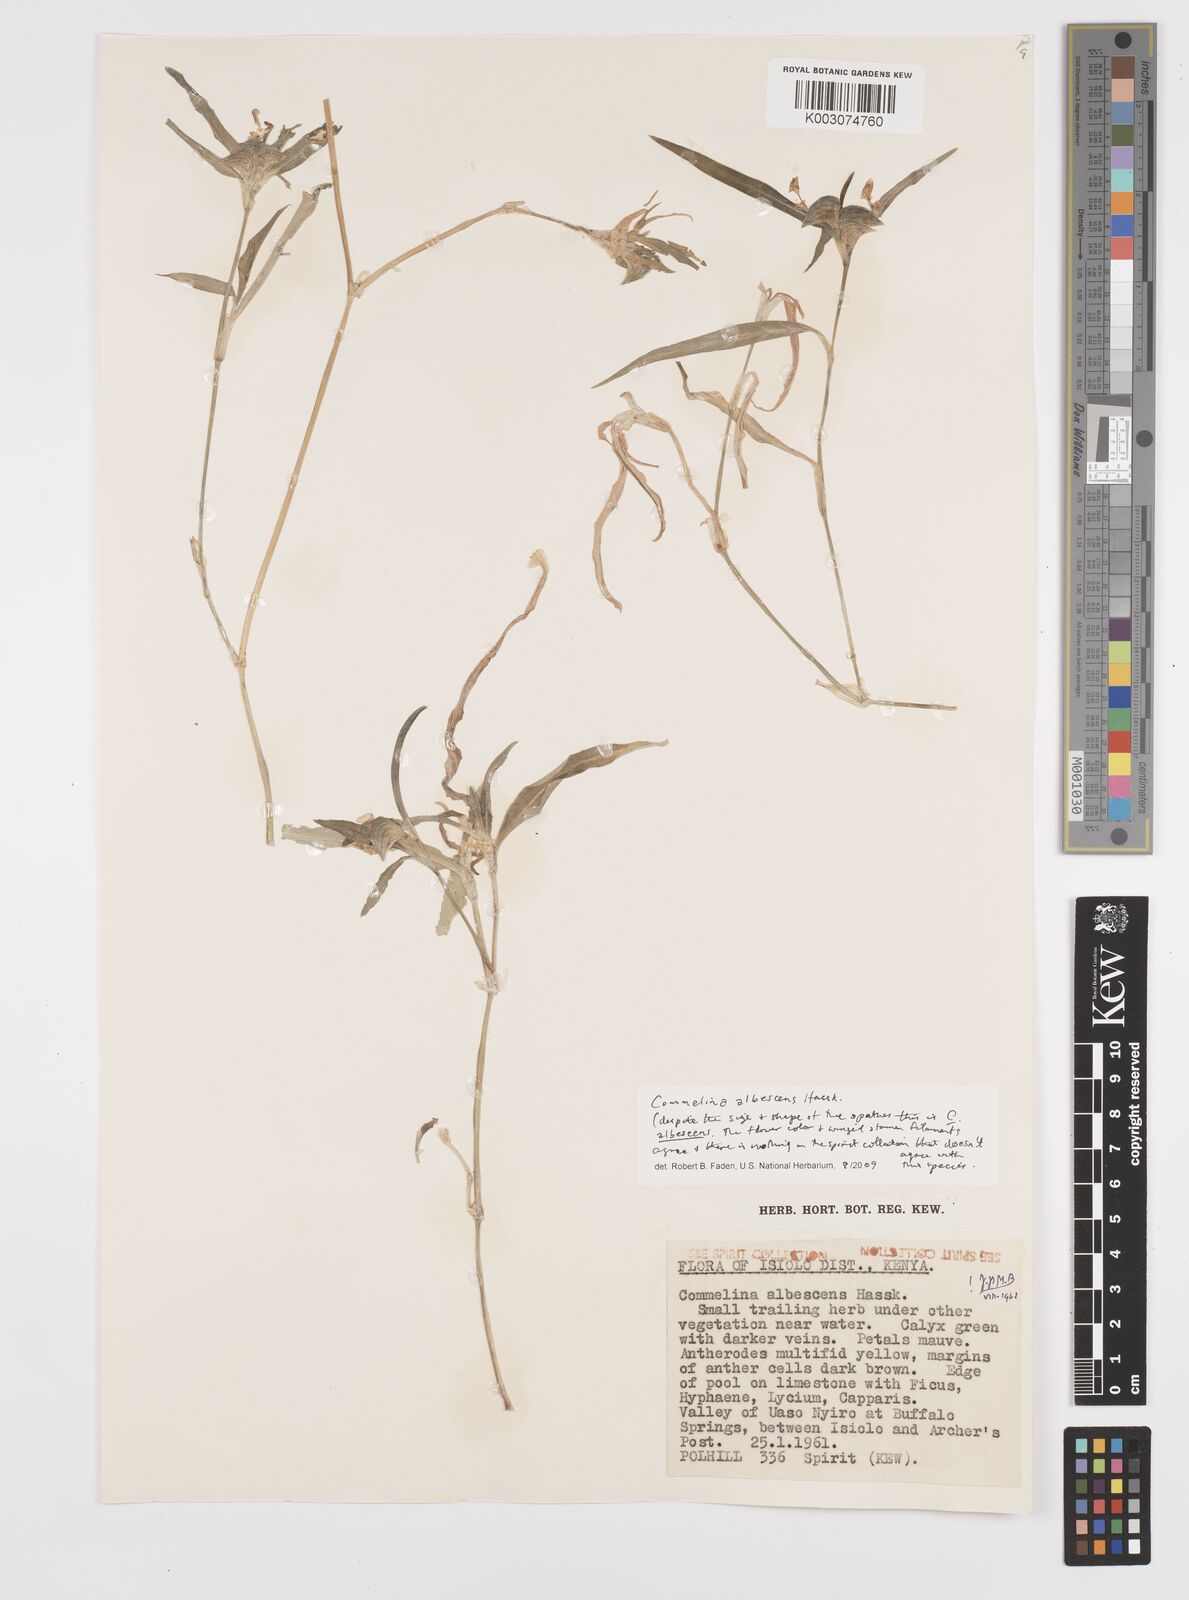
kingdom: Plantae
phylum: Tracheophyta
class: Liliopsida
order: Commelinales
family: Commelinaceae
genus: Commelina
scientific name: Commelina albescens
